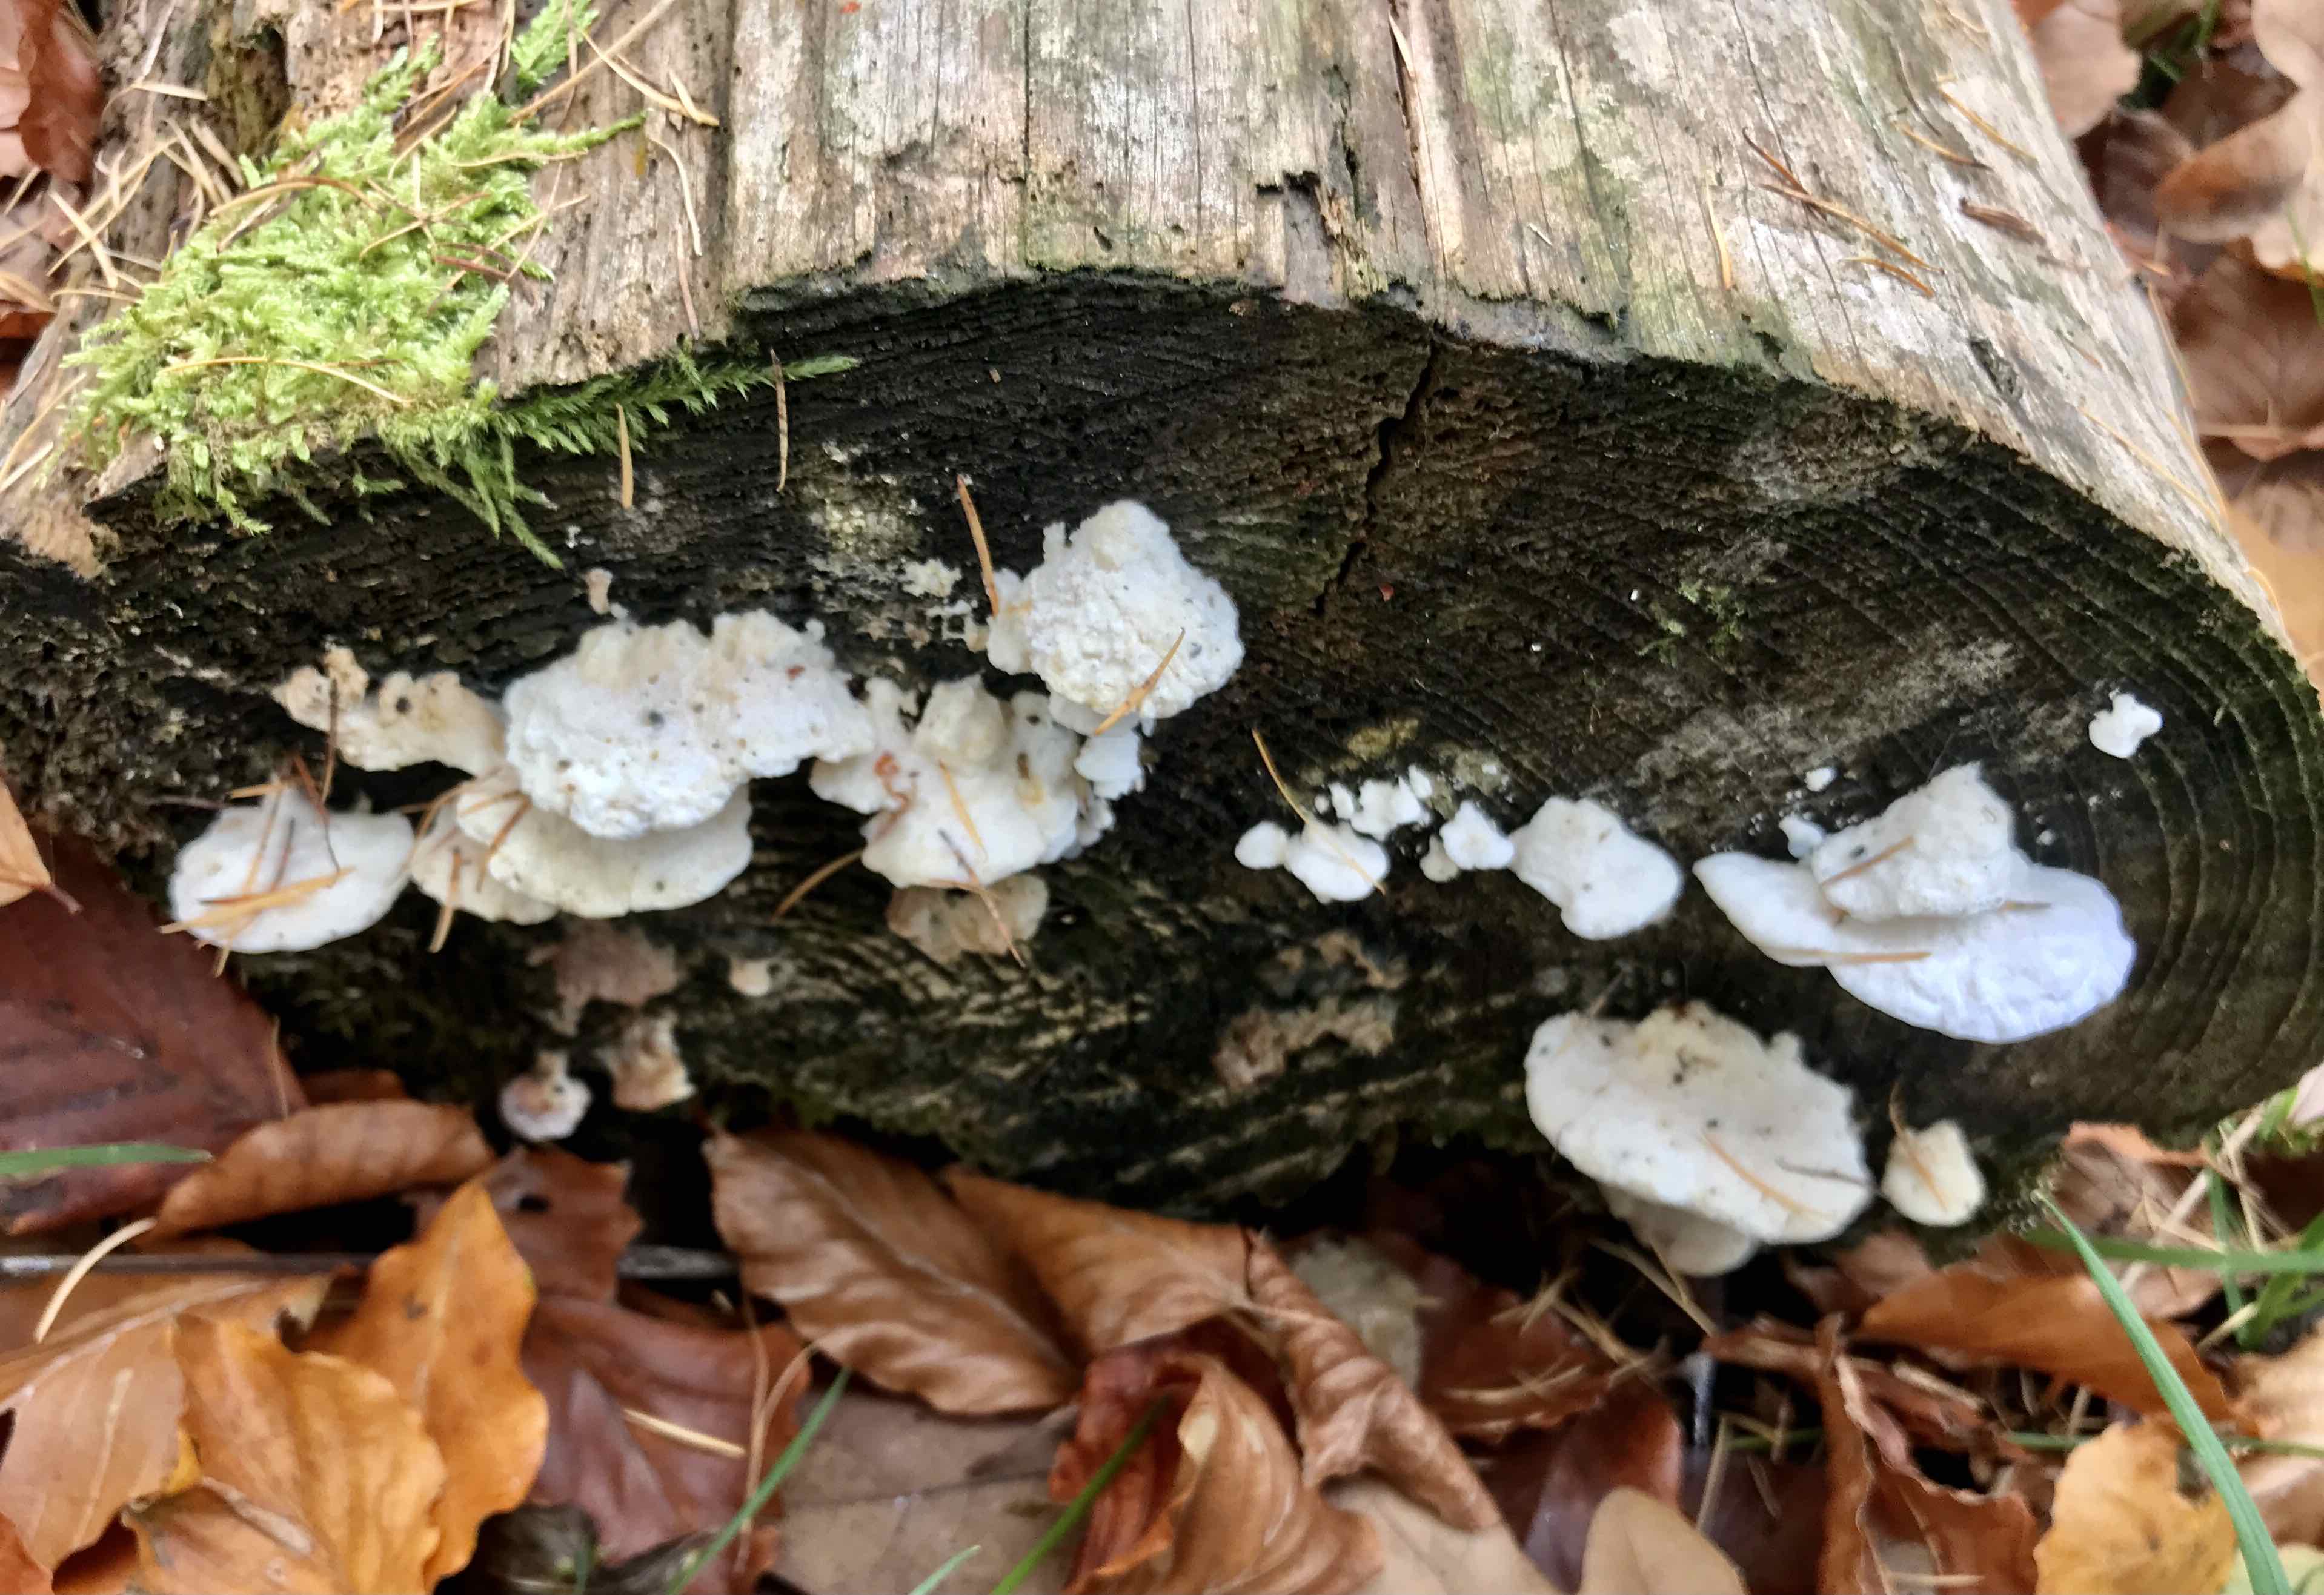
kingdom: Fungi
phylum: Basidiomycota
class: Agaricomycetes
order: Polyporales
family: Incrustoporiaceae
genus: Tyromyces
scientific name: Tyromyces lacteus
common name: mælkehvid kødporesvamp
